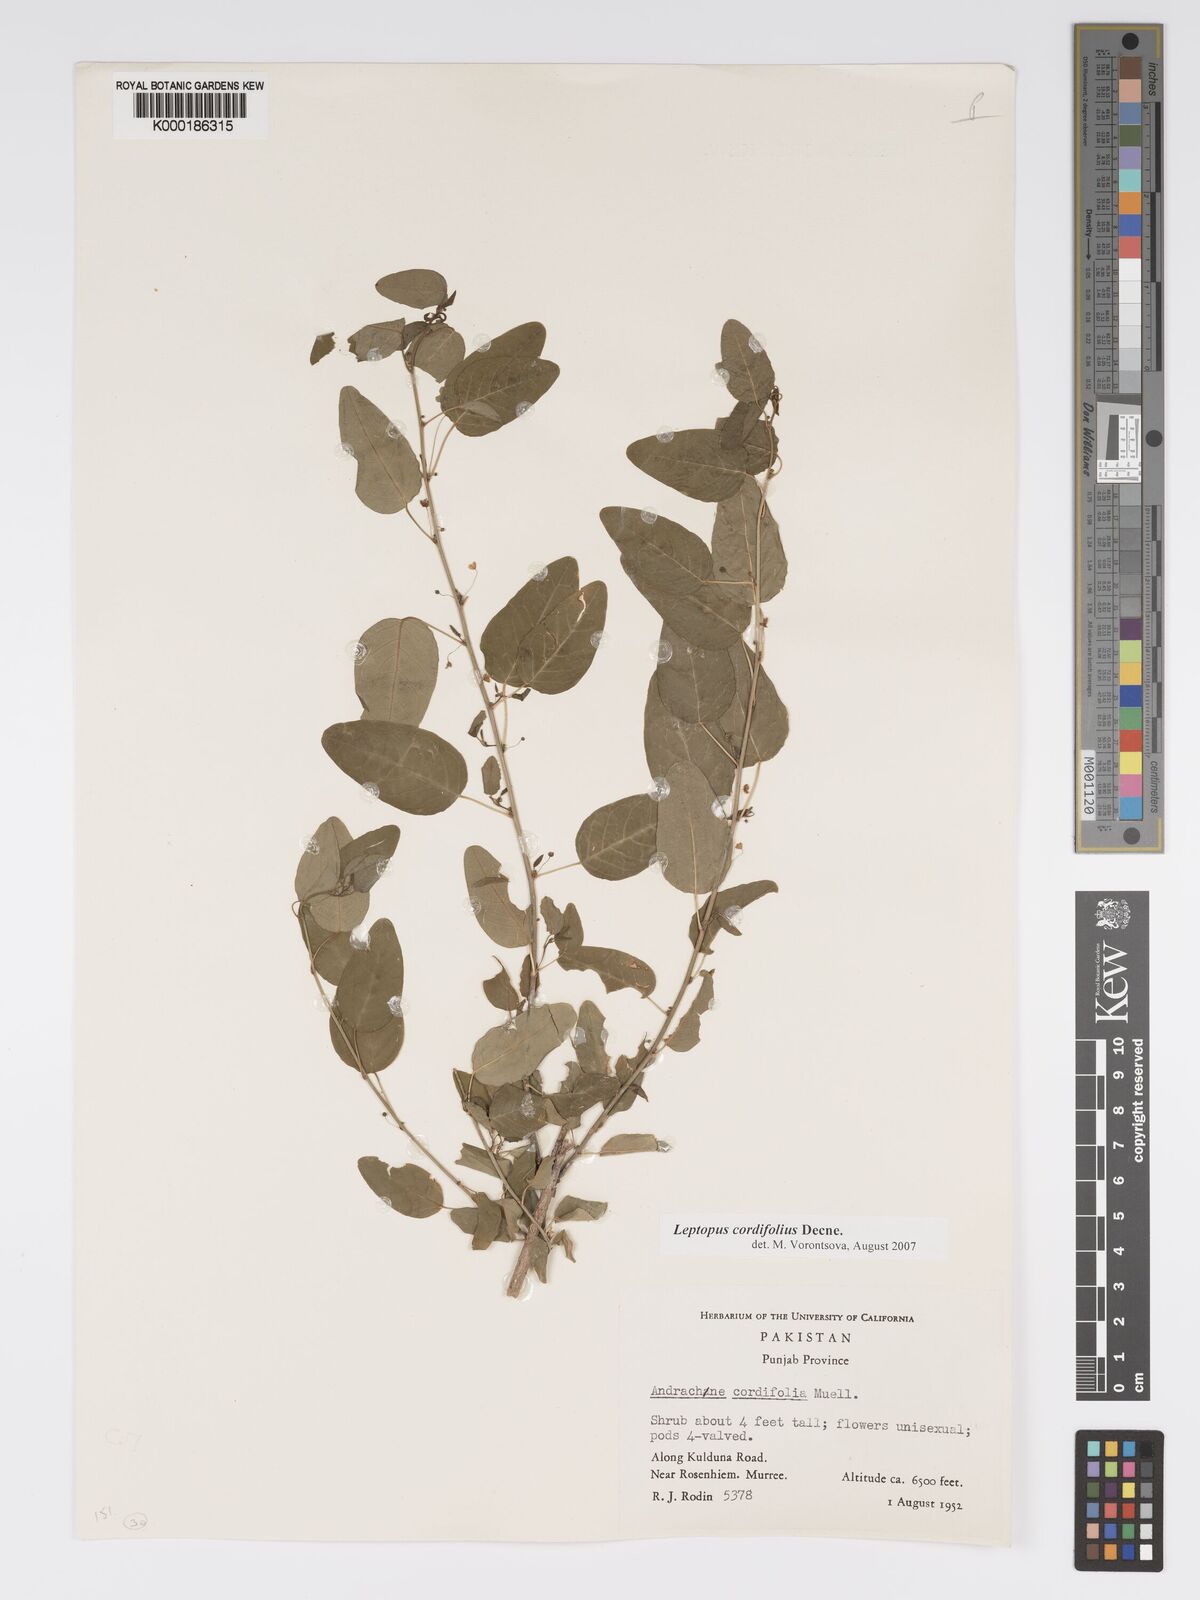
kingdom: Plantae
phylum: Tracheophyta
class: Magnoliopsida
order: Malpighiales
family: Phyllanthaceae
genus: Leptopus
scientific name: Leptopus cordifolius
